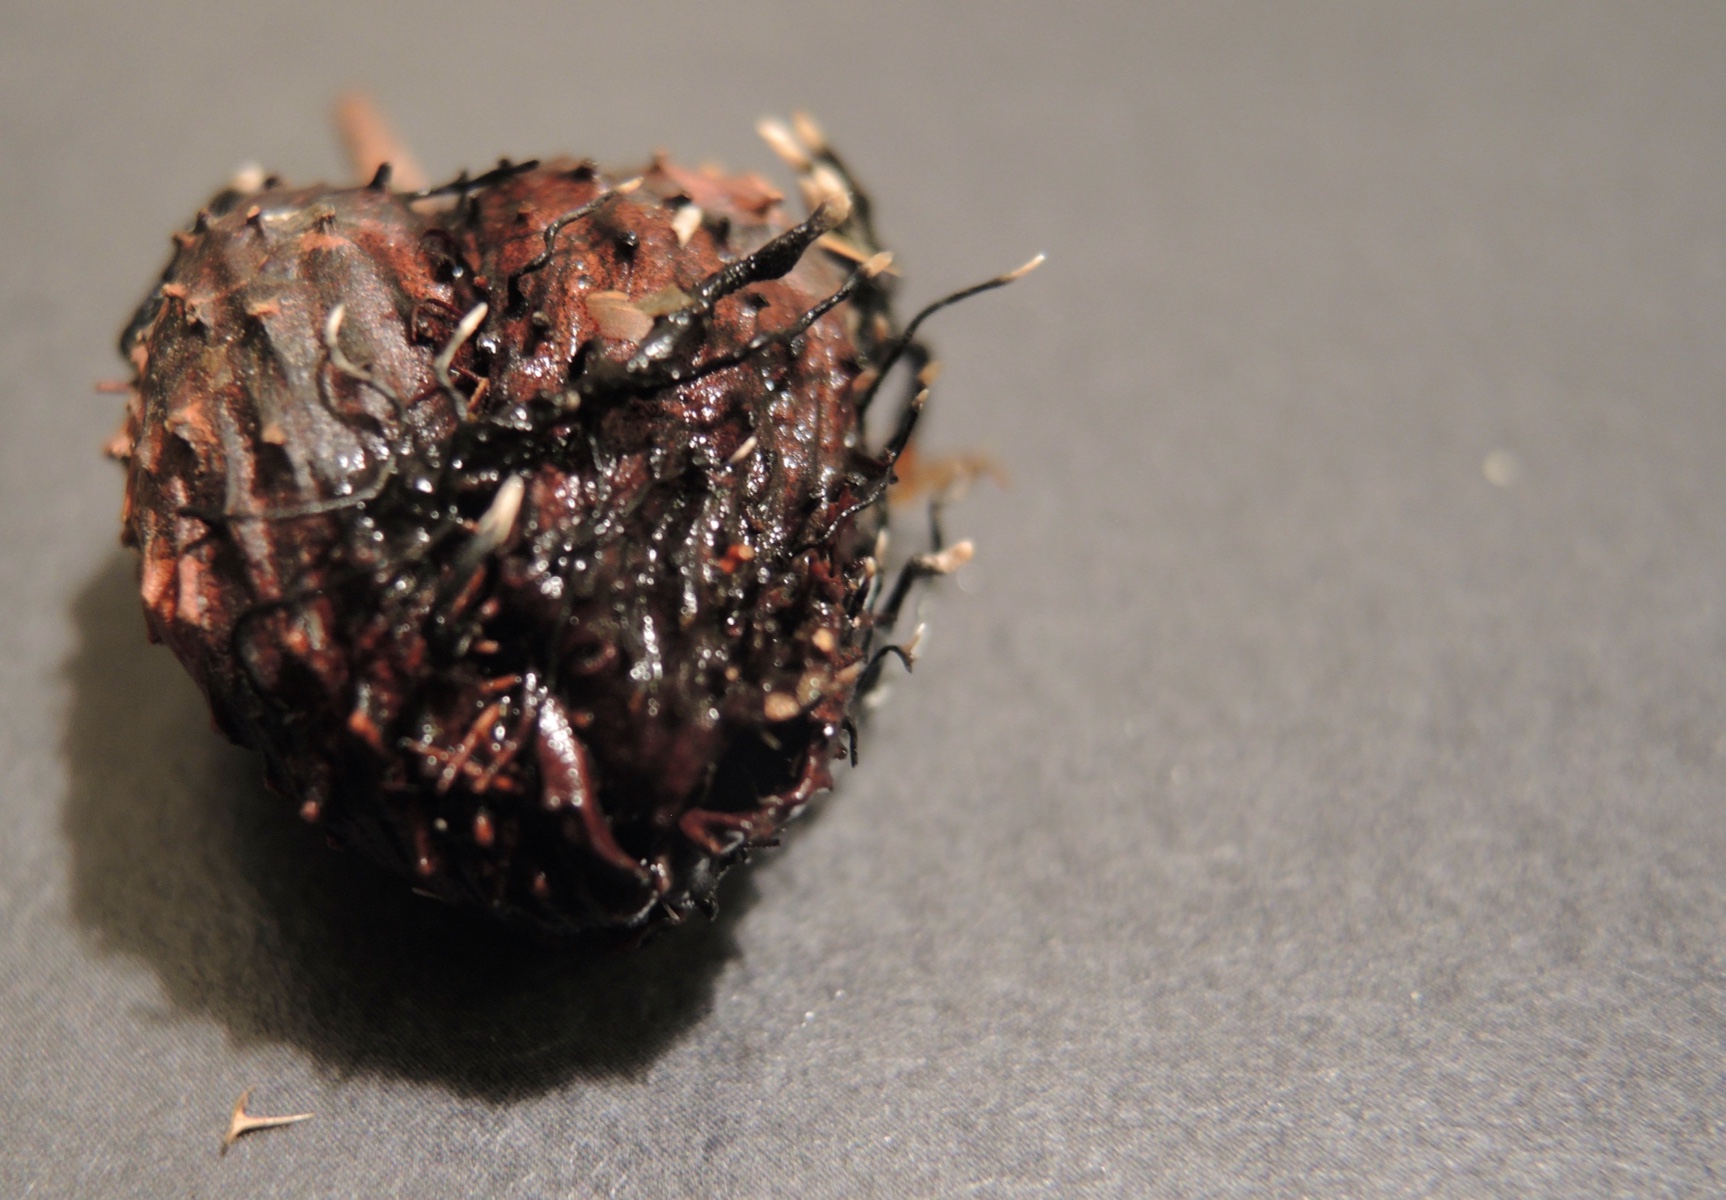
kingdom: Fungi
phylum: Ascomycota
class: Sordariomycetes
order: Xylariales
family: Xylariaceae
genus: Xylaria
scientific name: Xylaria carpophila
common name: bogskål-stødsvamp
